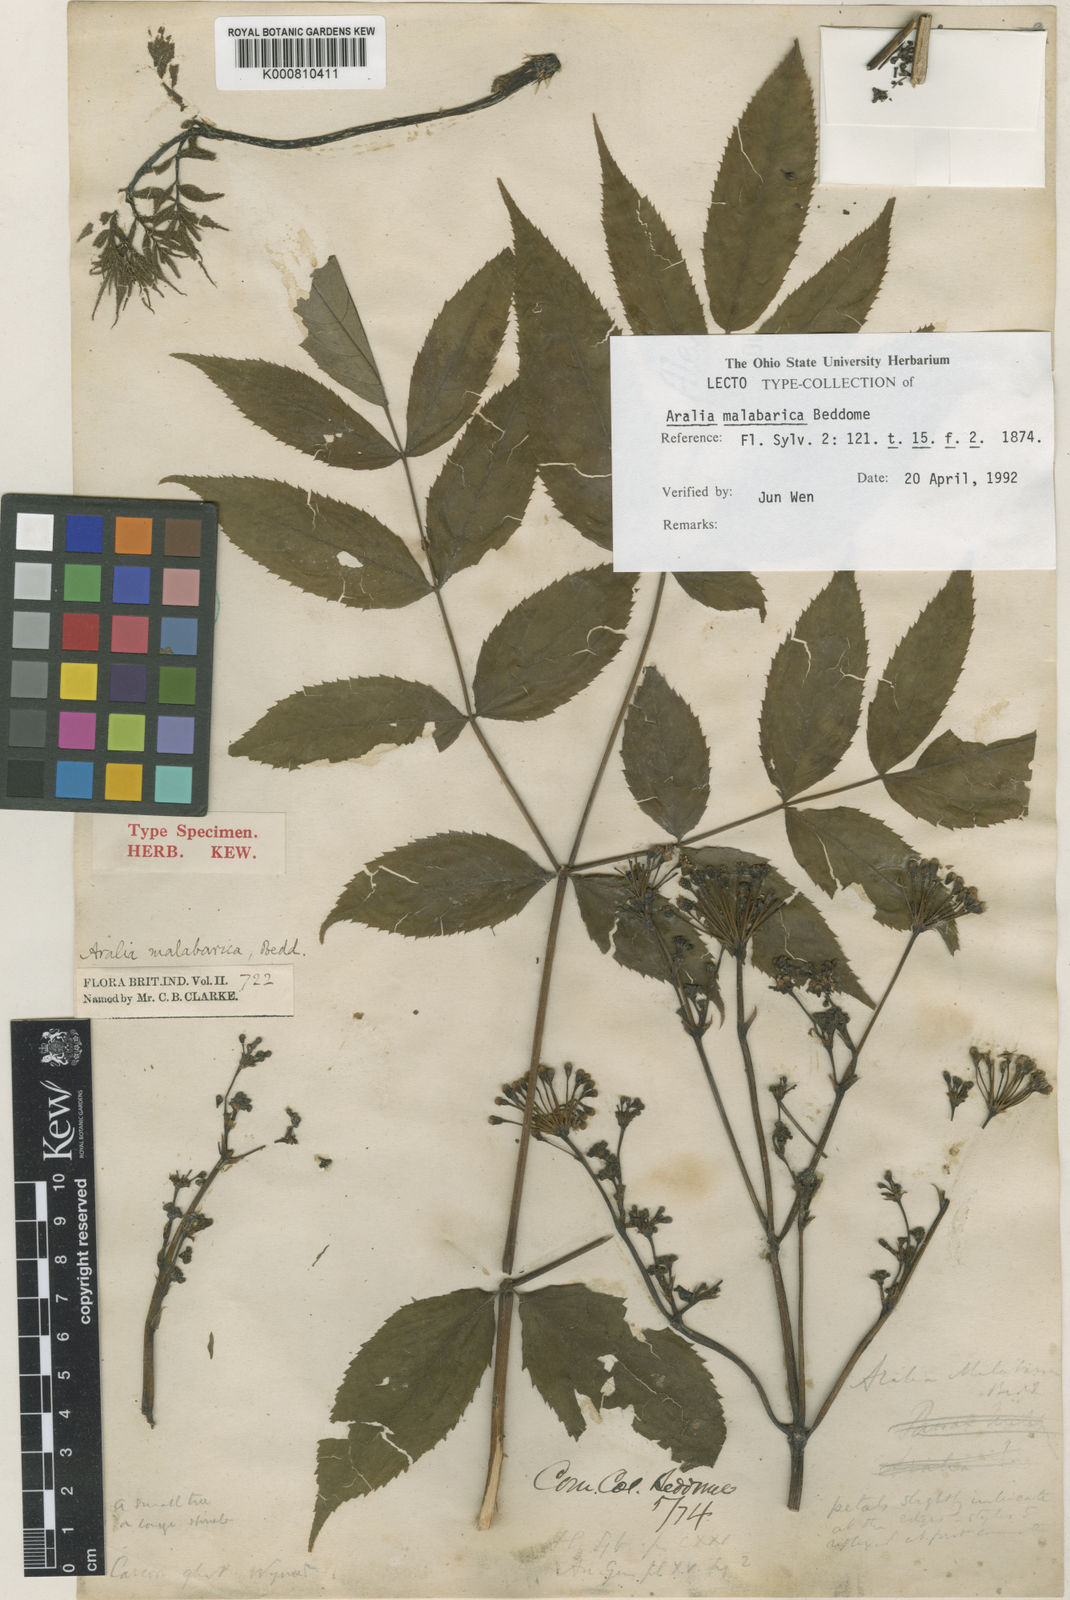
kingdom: Plantae
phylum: Tracheophyta
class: Magnoliopsida
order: Apiales
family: Araliaceae
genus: Aralia
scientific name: Aralia malabarica
